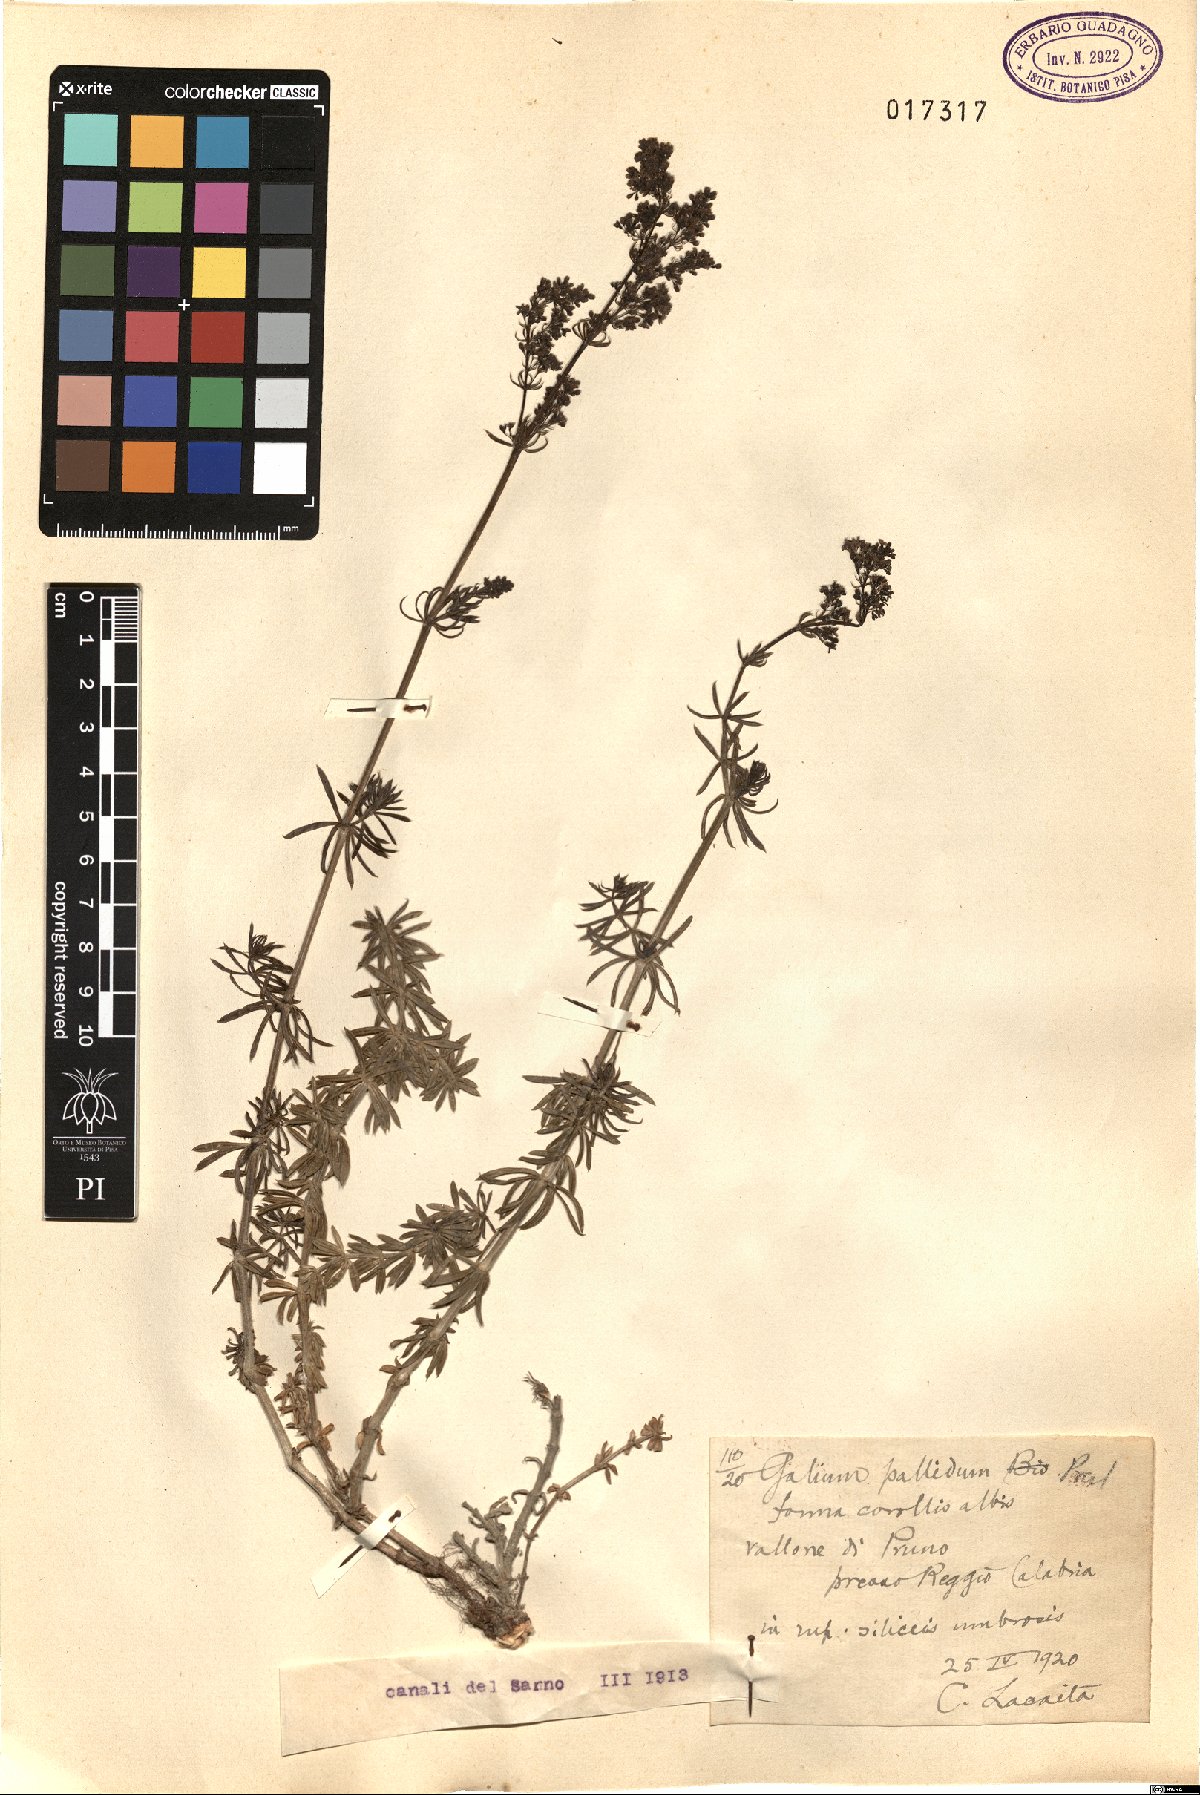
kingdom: Plantae
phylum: Tracheophyta
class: Magnoliopsida
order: Gentianales
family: Rubiaceae
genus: Galium
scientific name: Galium cinereum
